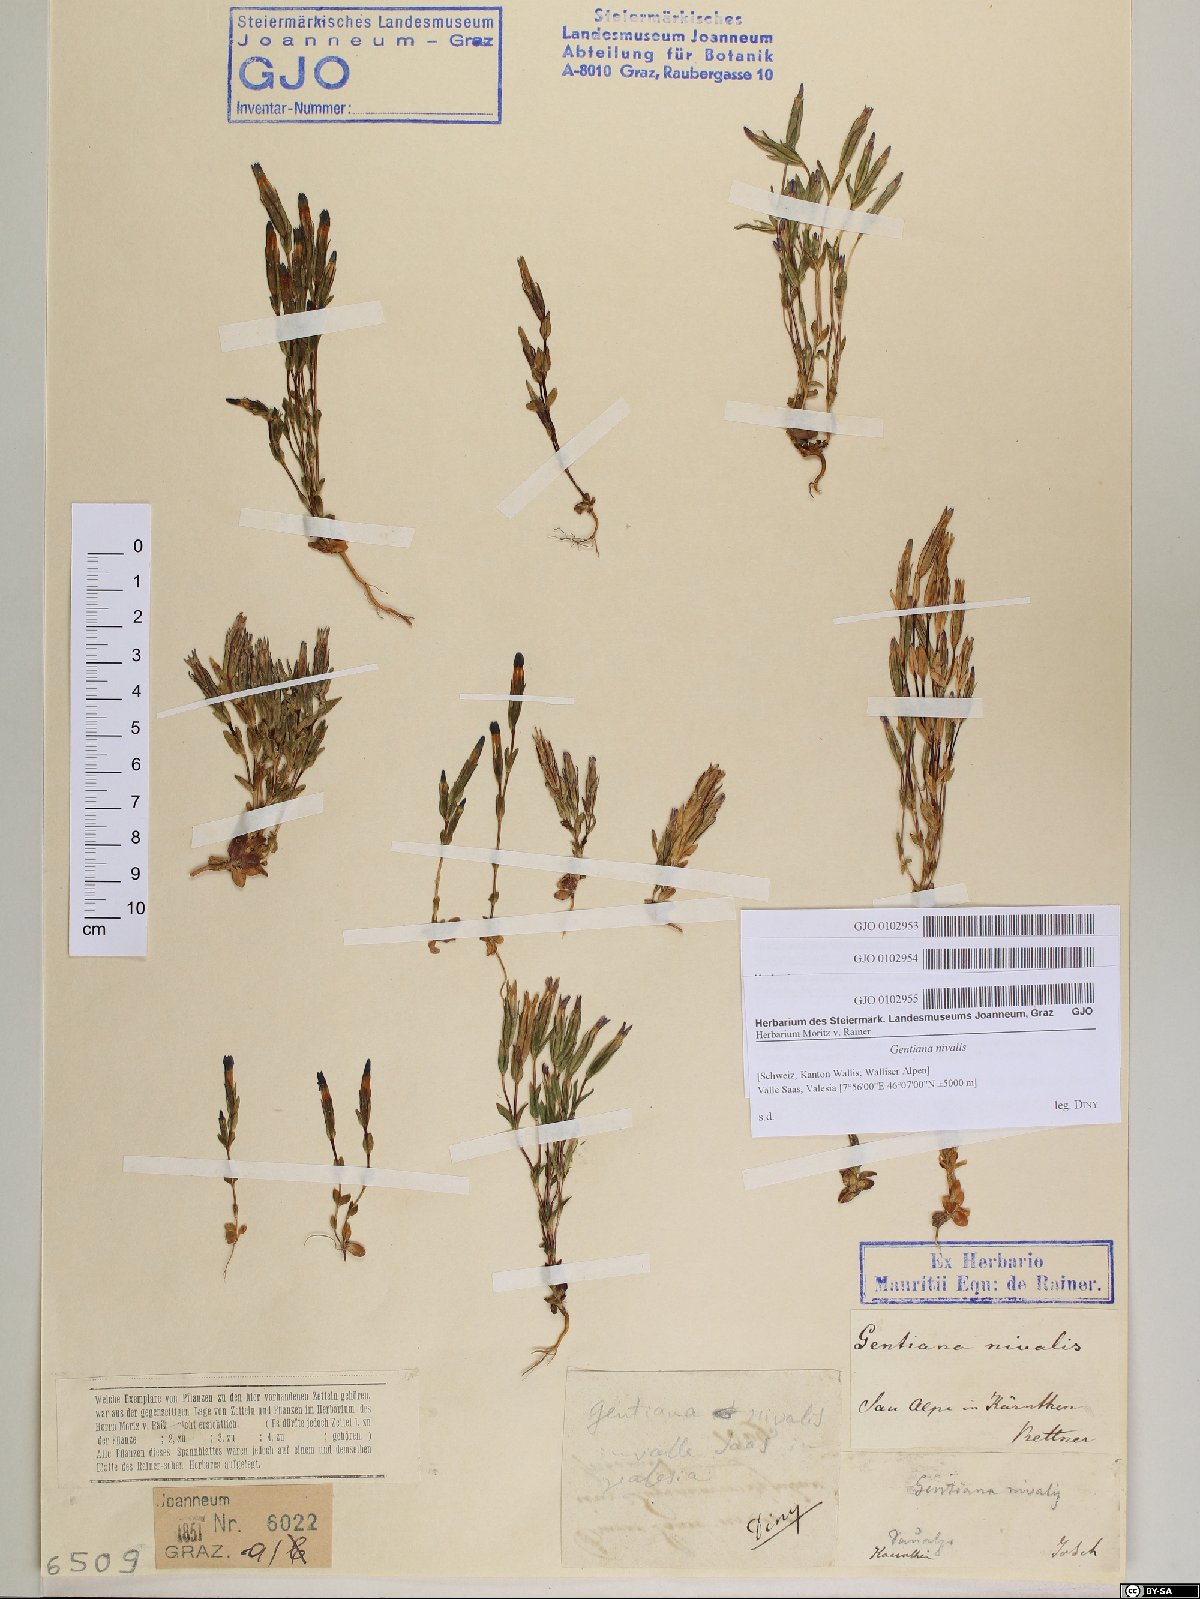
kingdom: Plantae
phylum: Tracheophyta
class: Magnoliopsida
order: Gentianales
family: Gentianaceae
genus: Gentiana
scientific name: Gentiana nivalis
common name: Alpine gentian
